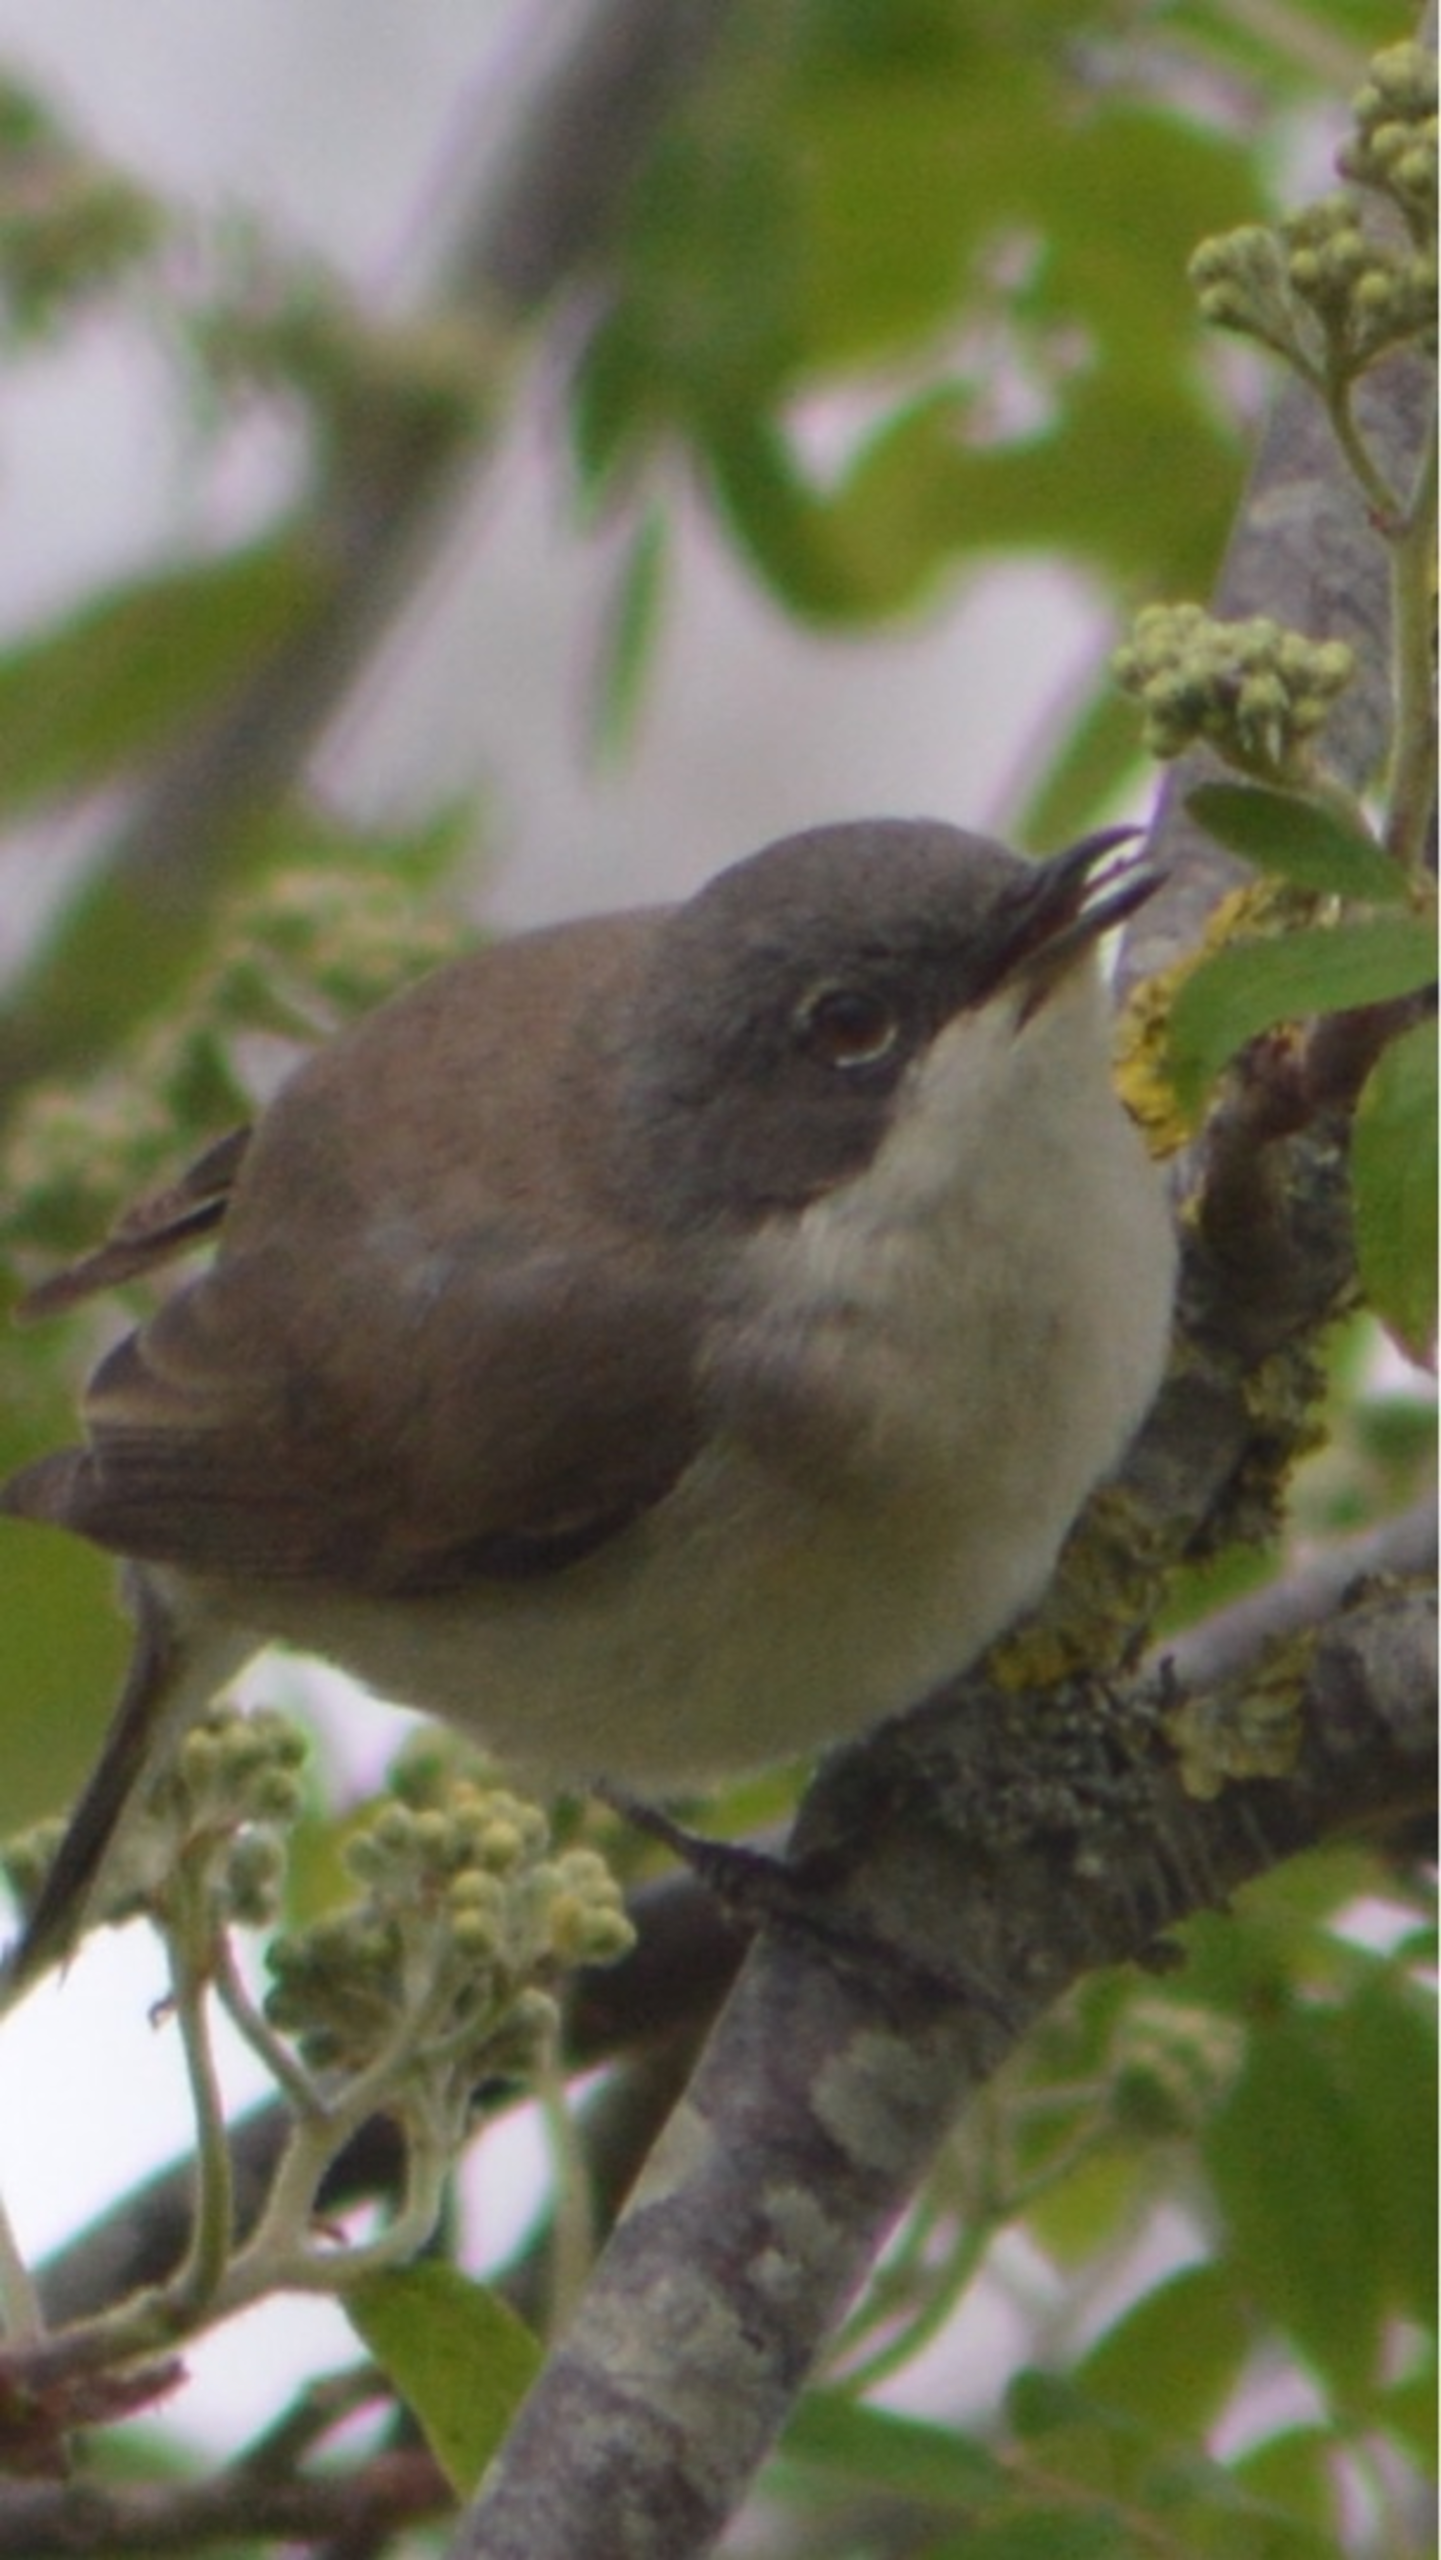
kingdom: Animalia
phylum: Chordata
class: Aves
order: Passeriformes
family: Sylviidae
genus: Sylvia
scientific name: Sylvia curruca
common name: Gærdesanger
